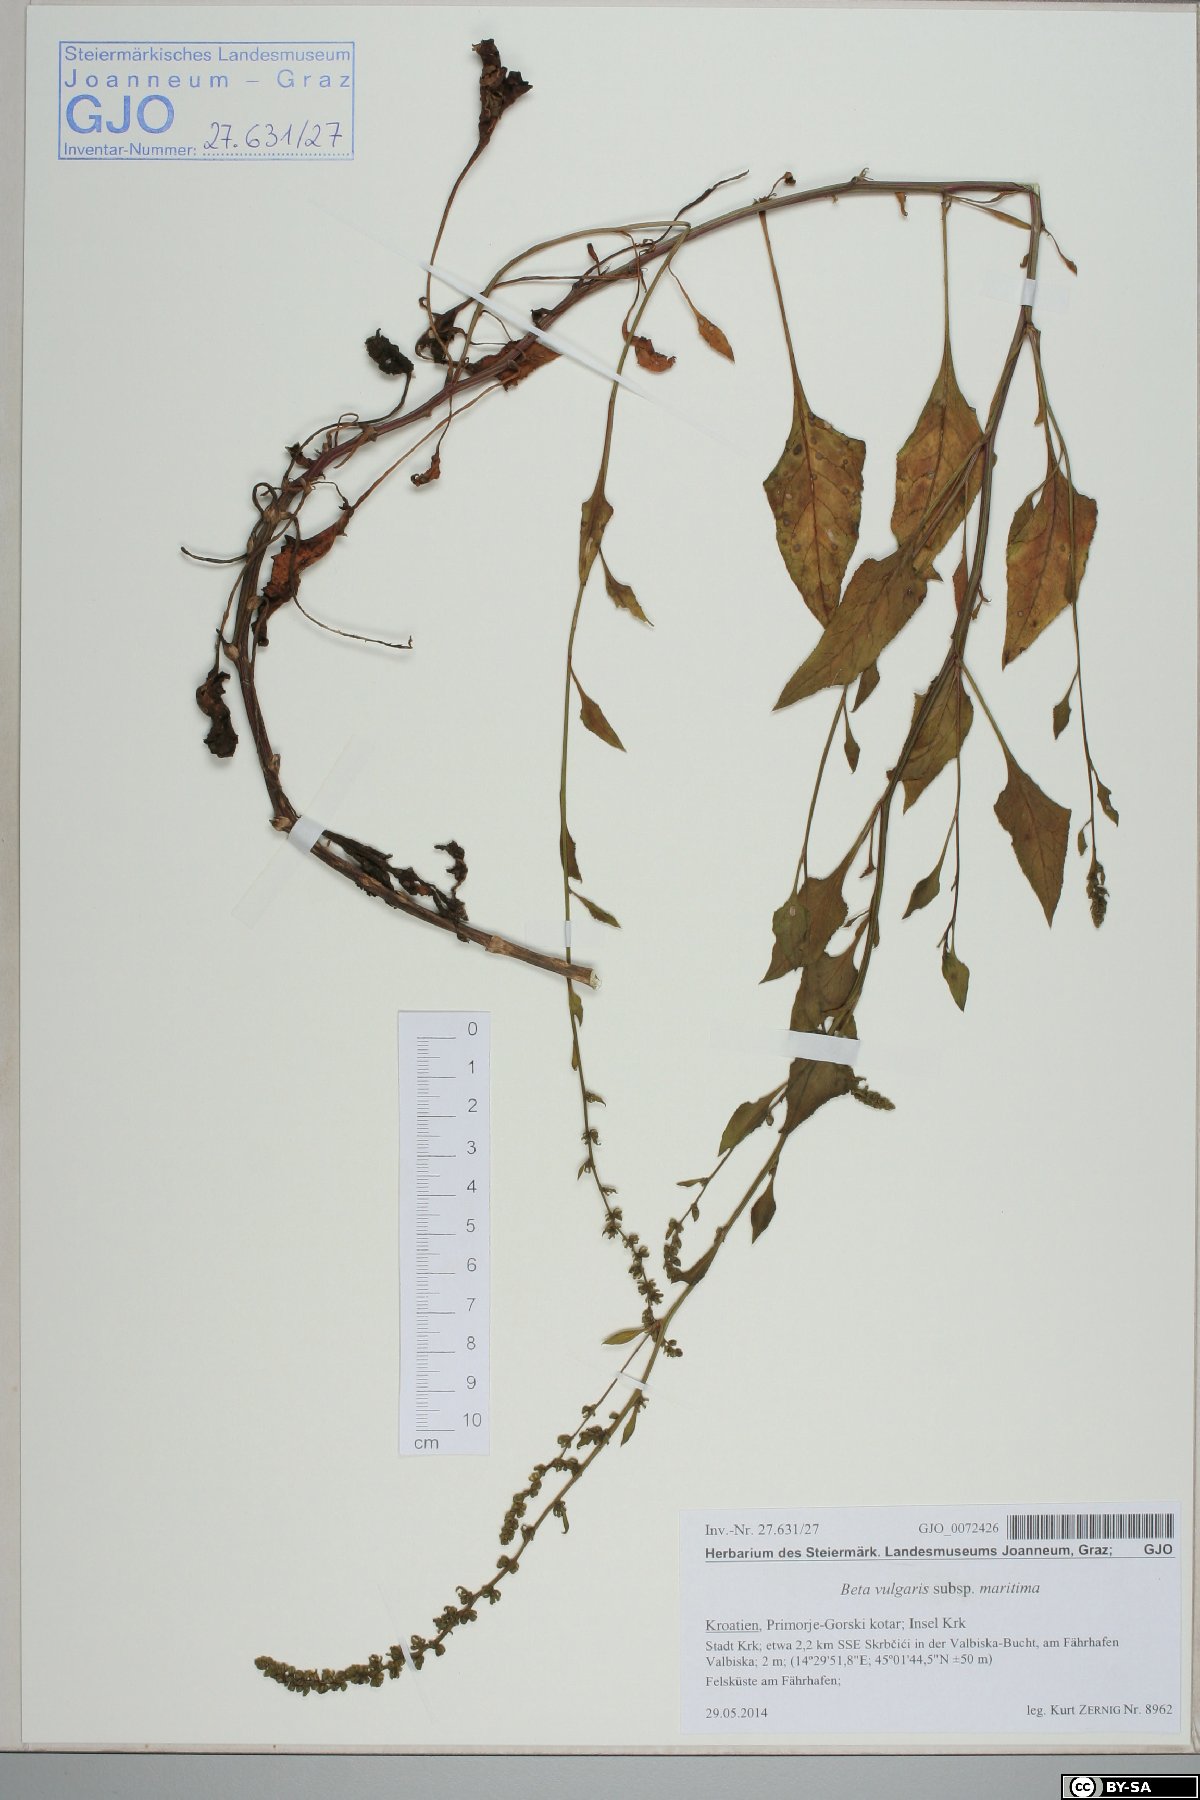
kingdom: Plantae
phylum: Tracheophyta
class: Magnoliopsida
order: Caryophyllales
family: Amaranthaceae
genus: Beta
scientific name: Beta maritima
